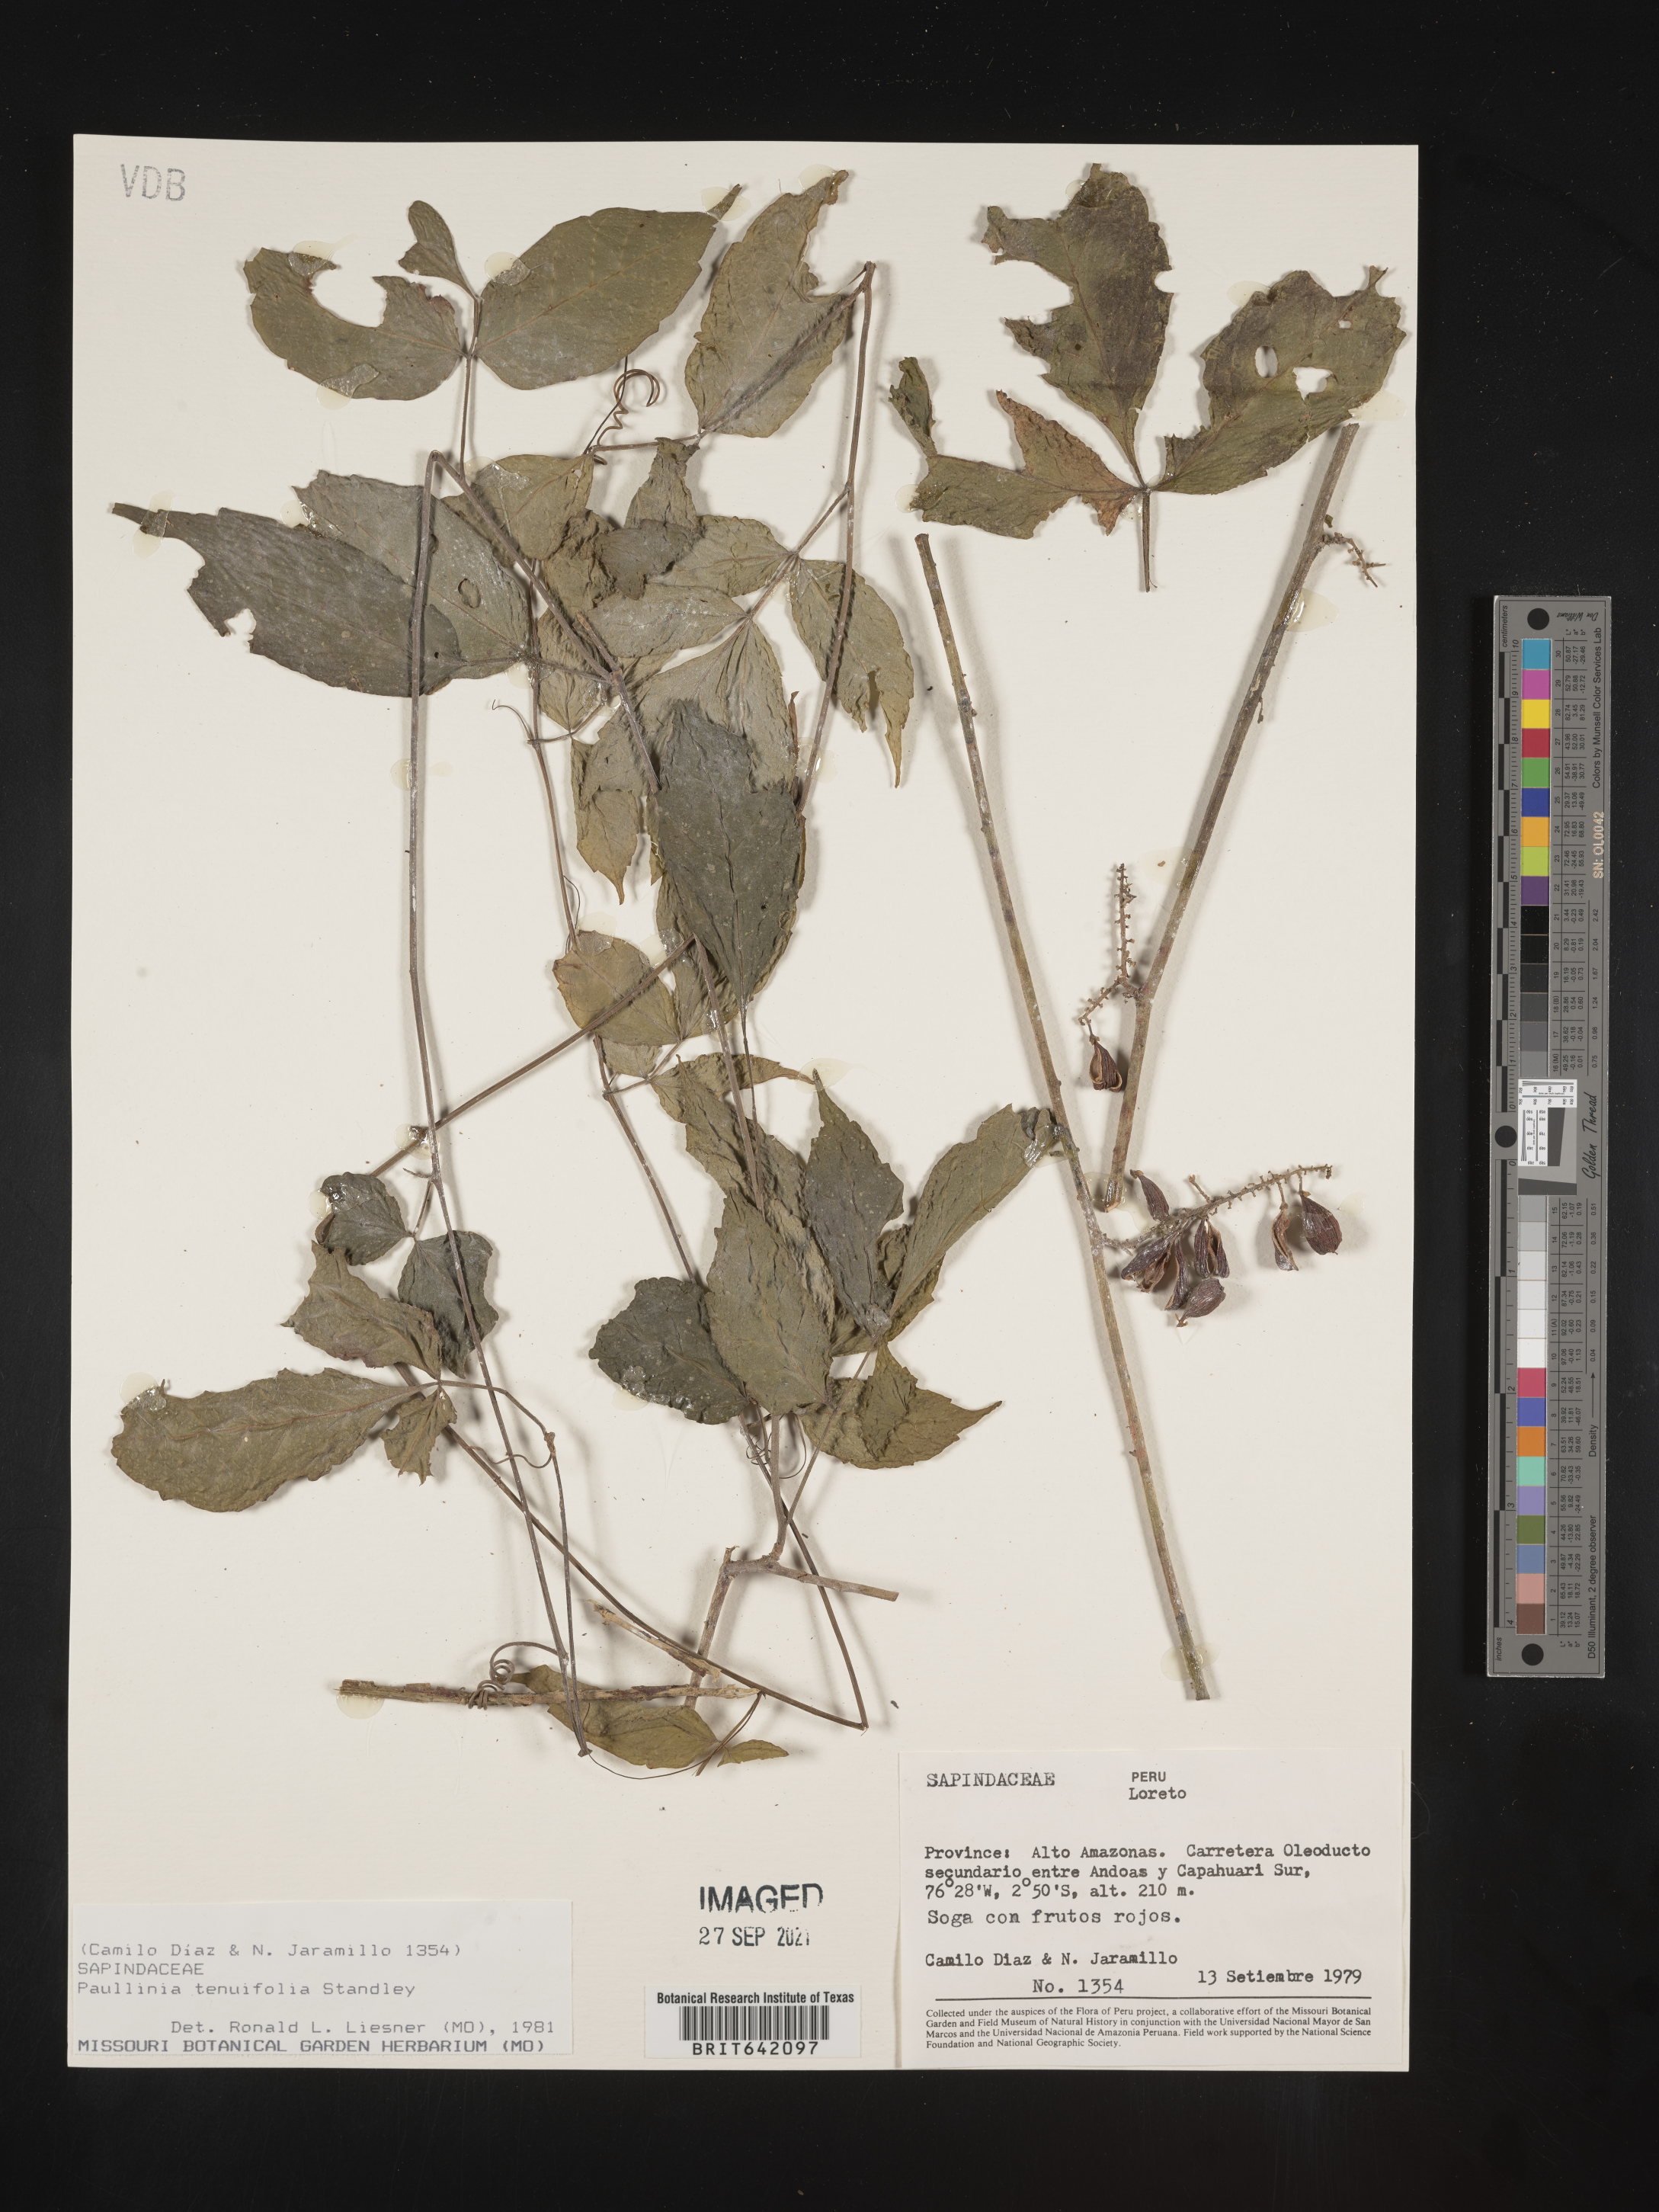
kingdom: Plantae
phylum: Tracheophyta
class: Magnoliopsida
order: Sapindales
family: Sapindaceae
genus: Paullinia
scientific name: Paullinia
